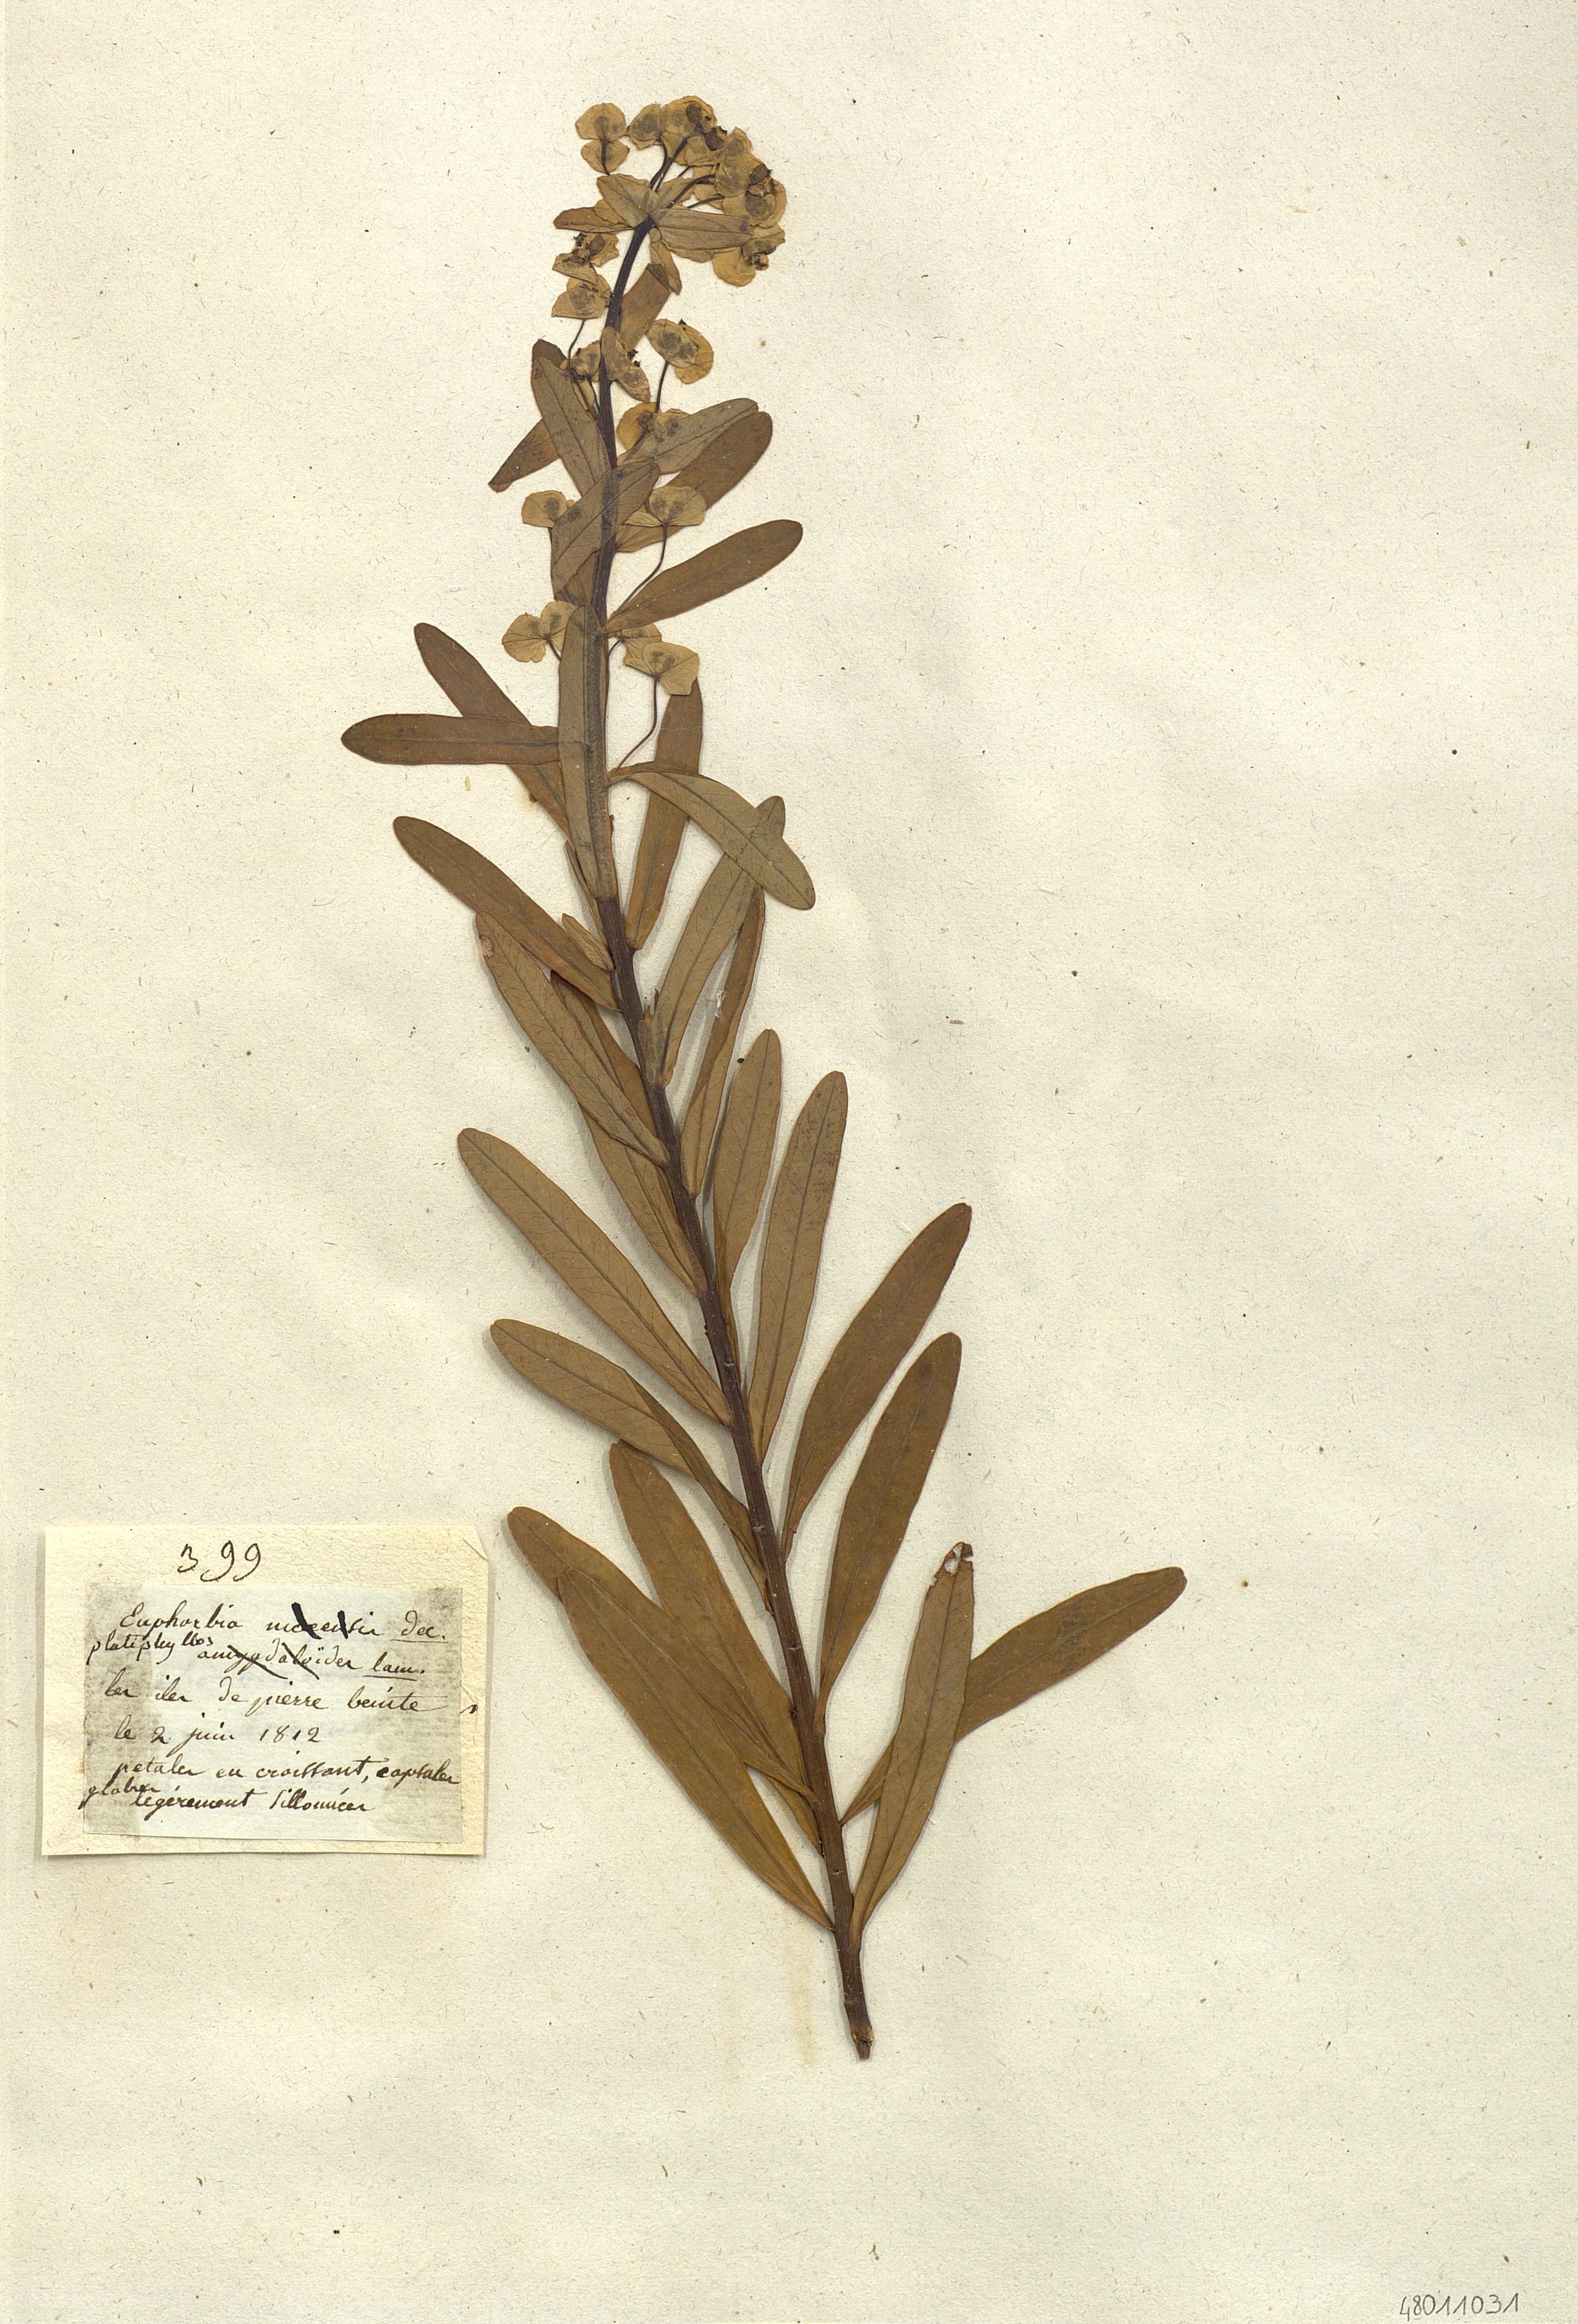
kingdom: Plantae
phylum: Tracheophyta
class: Magnoliopsida
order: Malpighiales
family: Euphorbiaceae
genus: Euphorbia
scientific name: Euphorbia platyphyllos
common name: Broad-leaved spurge
